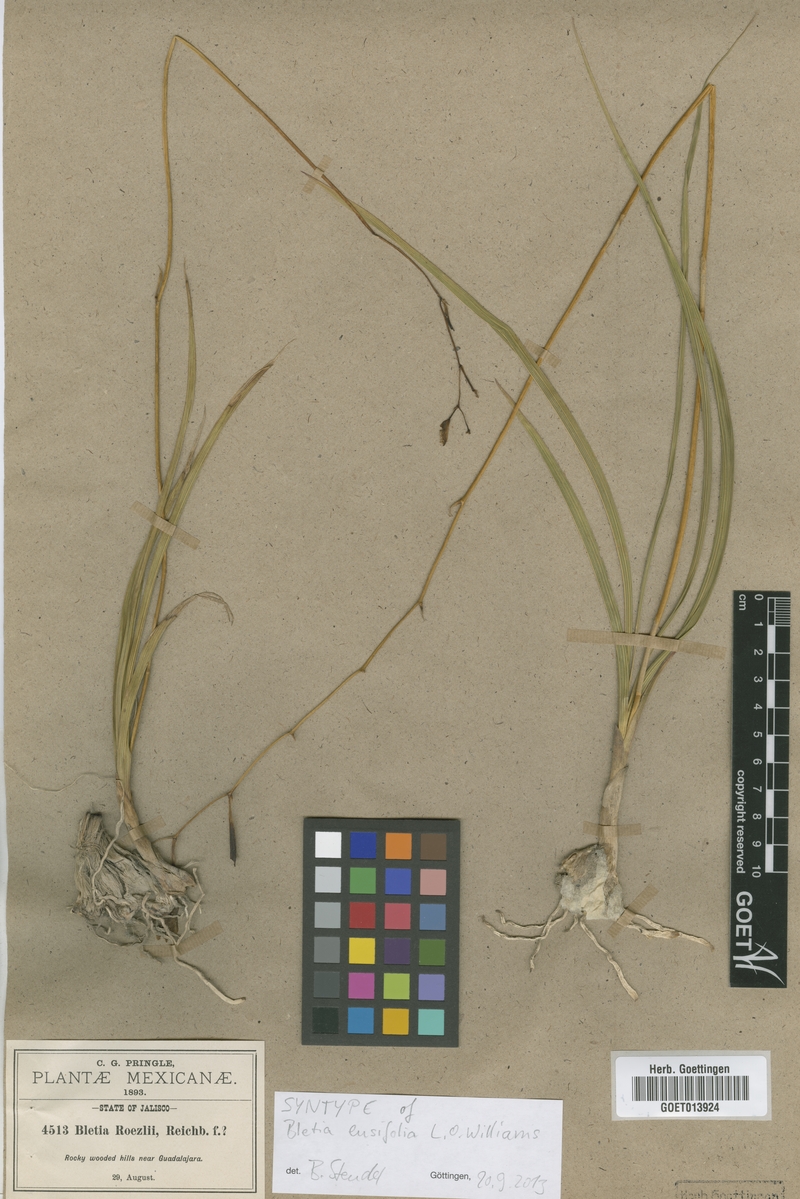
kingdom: Plantae
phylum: Tracheophyta
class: Liliopsida
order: Asparagales
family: Orchidaceae
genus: Bletia
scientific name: Bletia ensifolia
